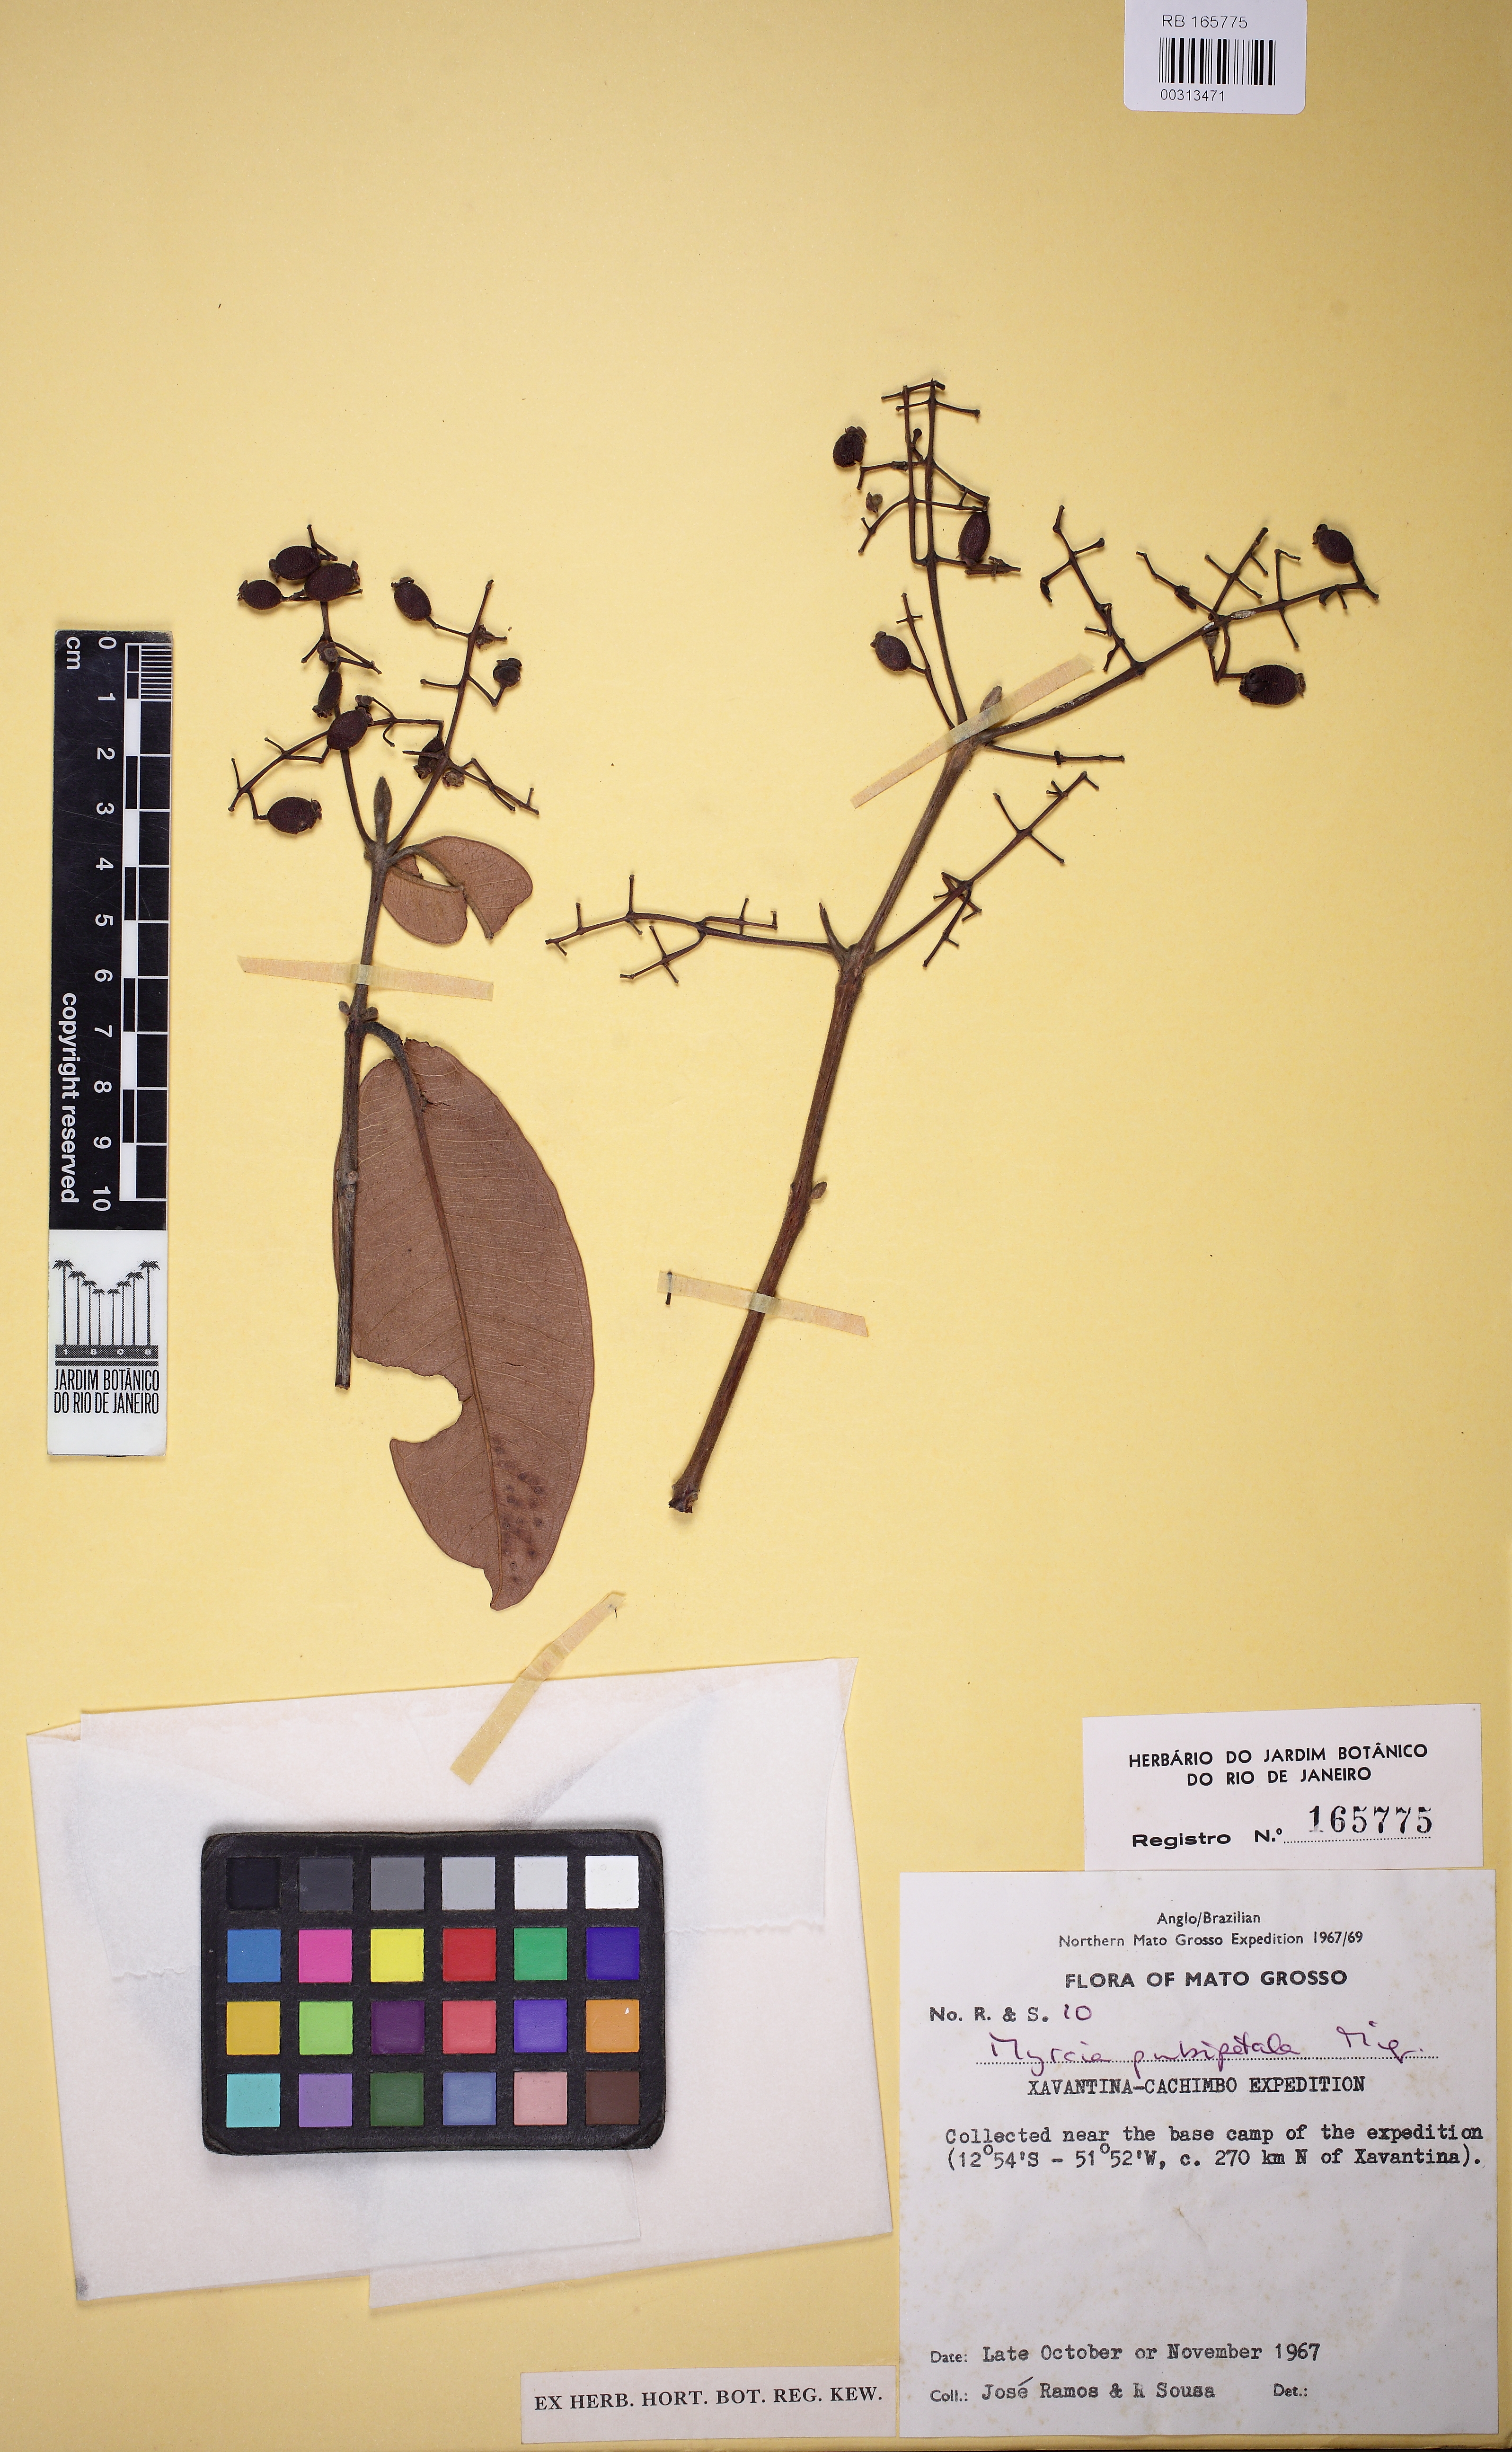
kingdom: Plantae
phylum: Tracheophyta
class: Magnoliopsida
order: Myrtales
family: Myrtaceae
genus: Myrcia
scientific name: Myrcia splendens
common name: Surinam cherry
